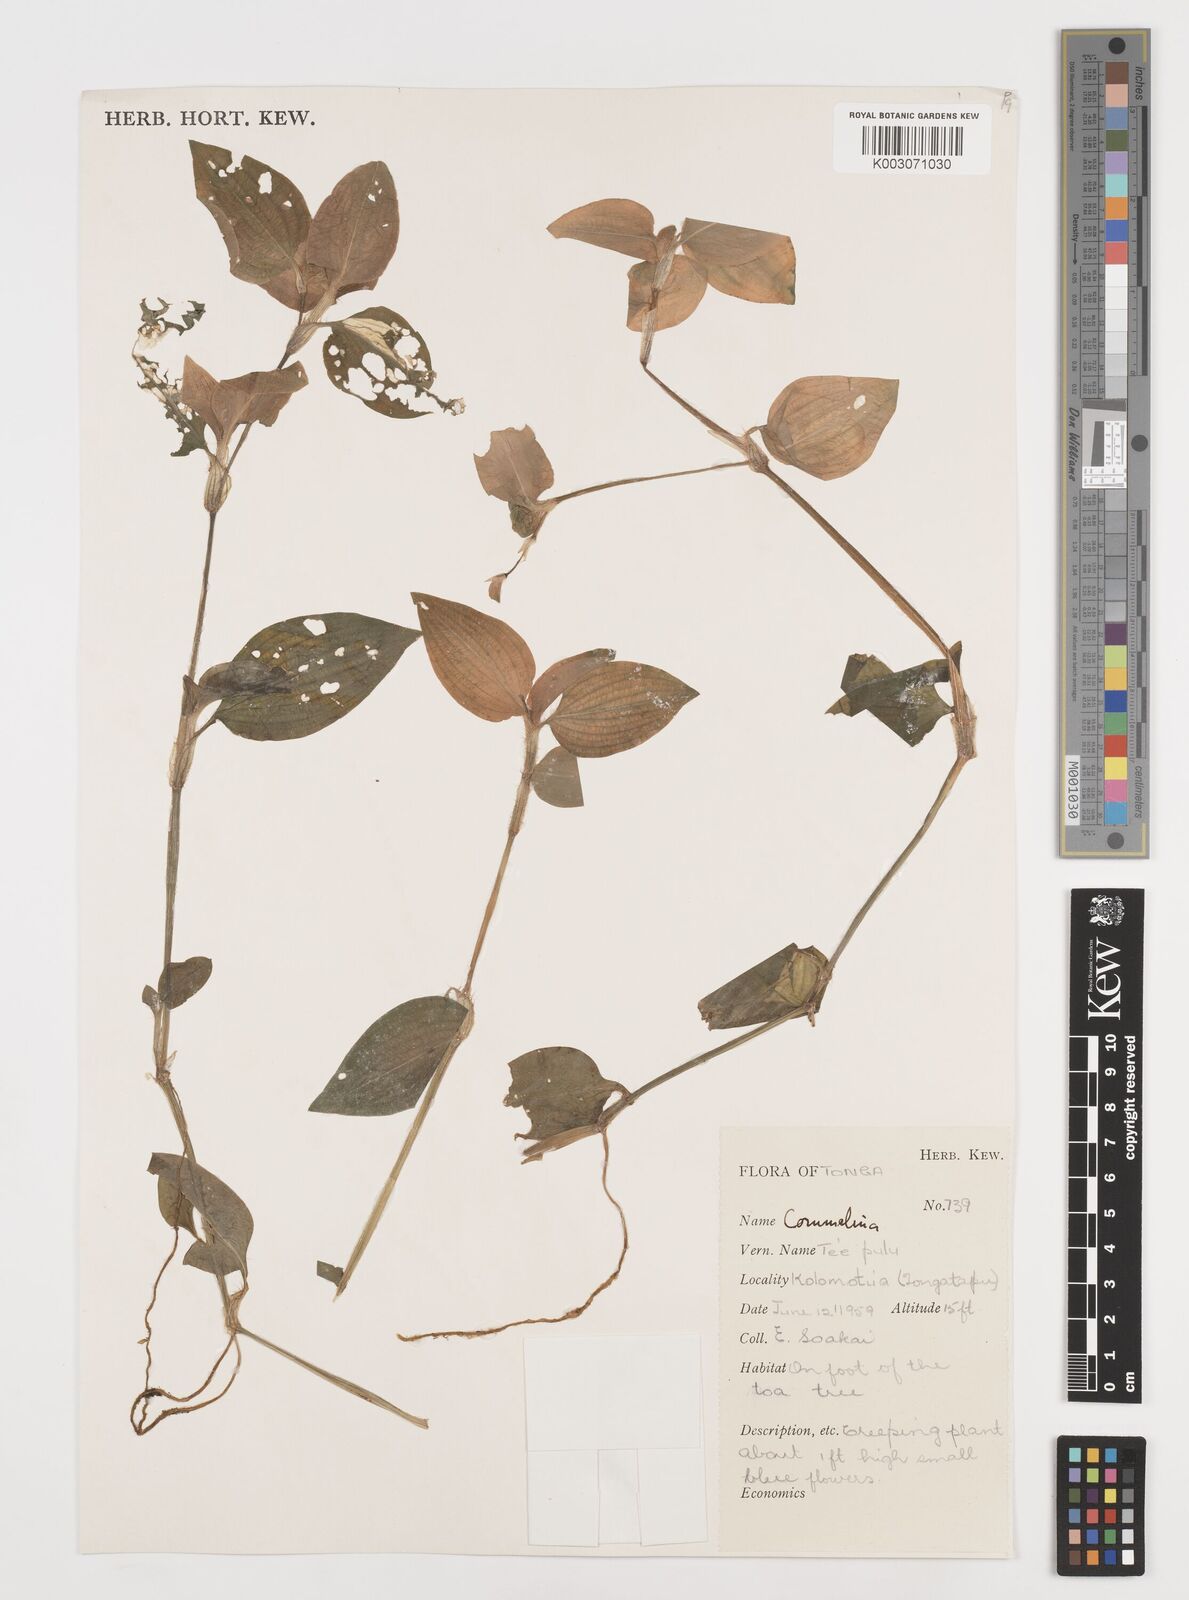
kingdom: Plantae
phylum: Tracheophyta
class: Liliopsida
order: Commelinales
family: Commelinaceae
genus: Commelina
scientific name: Commelina
